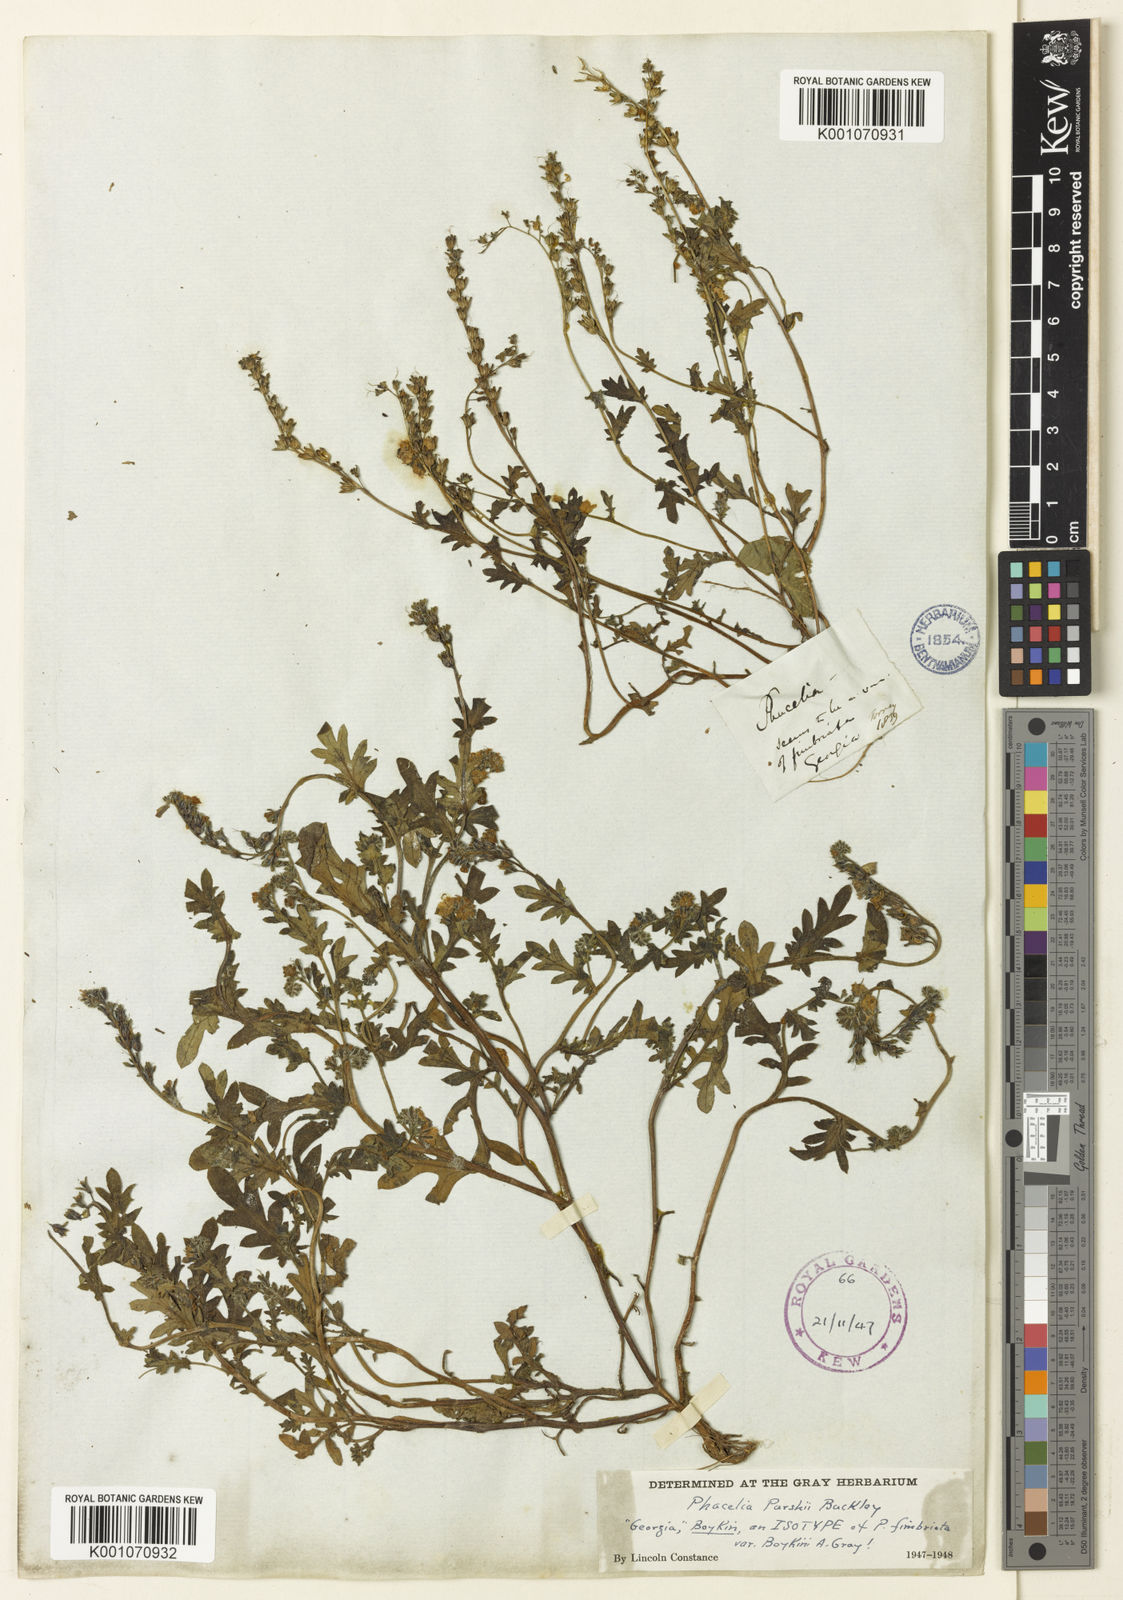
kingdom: Plantae
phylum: Tracheophyta
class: Magnoliopsida
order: Boraginales
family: Hydrophyllaceae
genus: Phacelia
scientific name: Phacelia purshii
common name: Miami-mist
